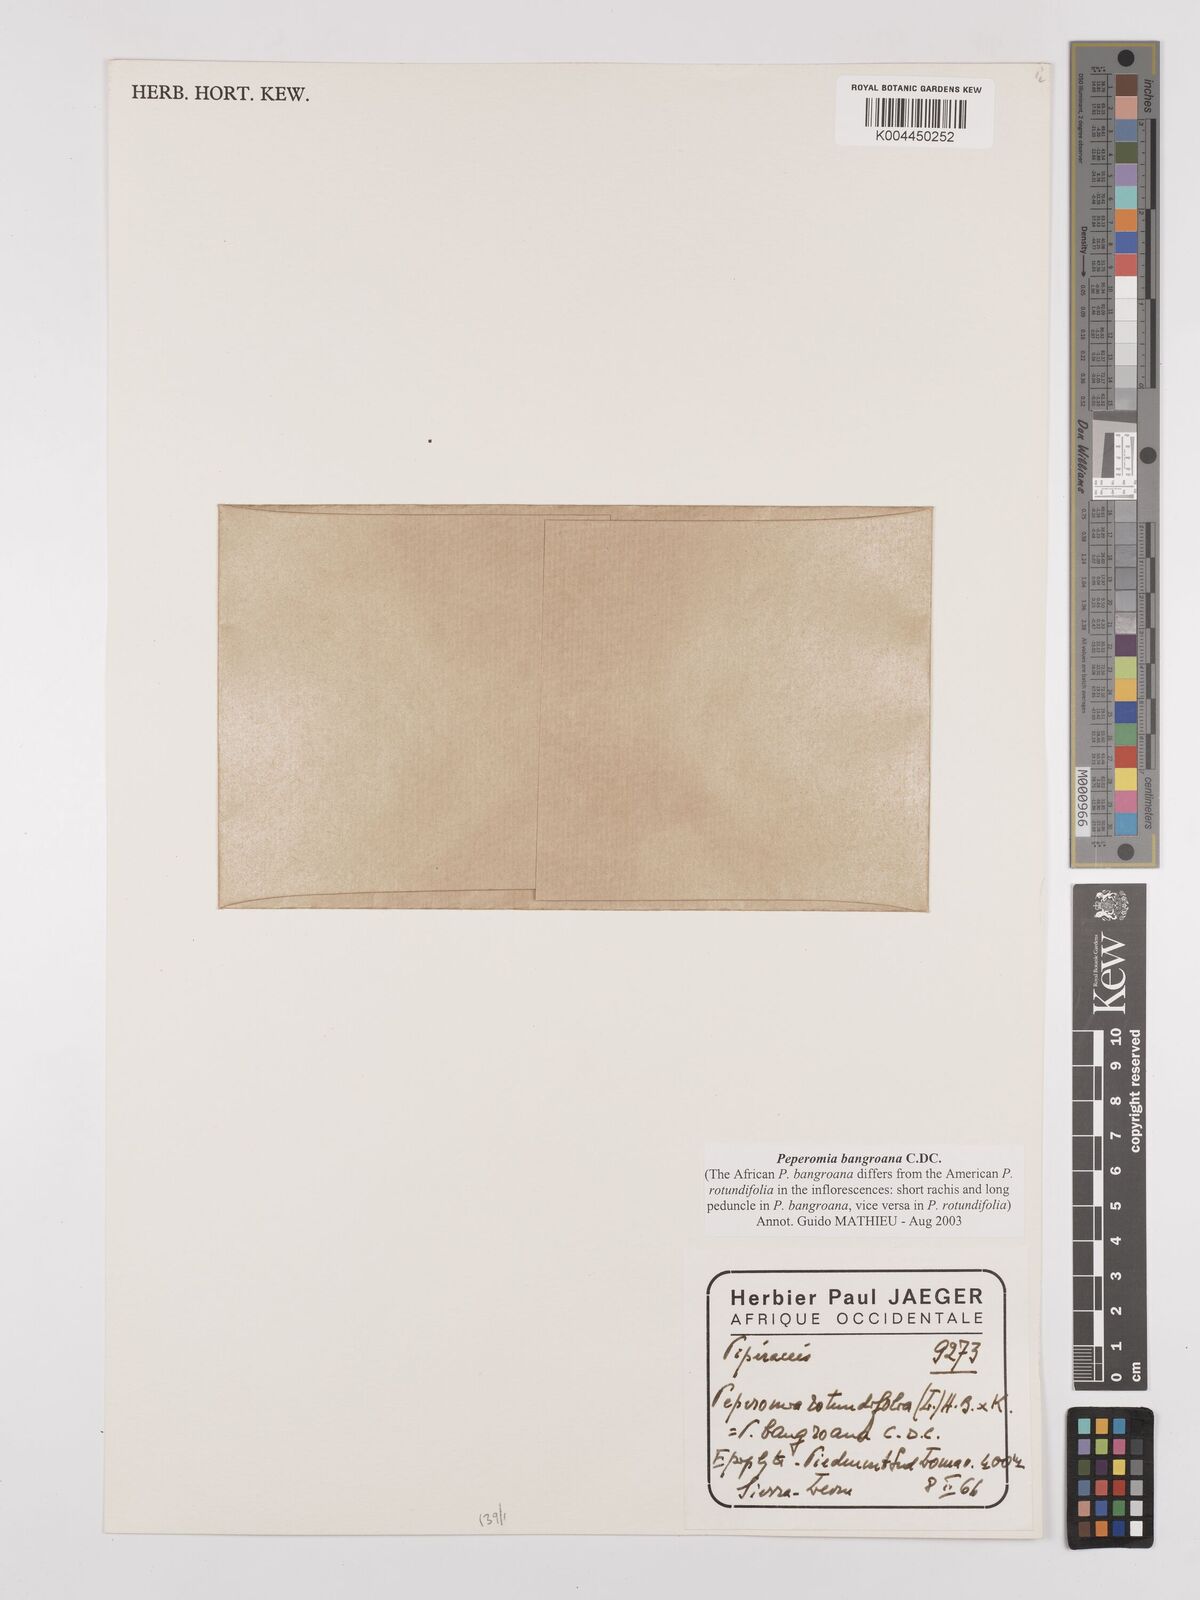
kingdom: Plantae
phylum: Tracheophyta
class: Magnoliopsida
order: Piperales
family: Piperaceae
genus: Peperomia
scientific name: Peperomia bangroana
